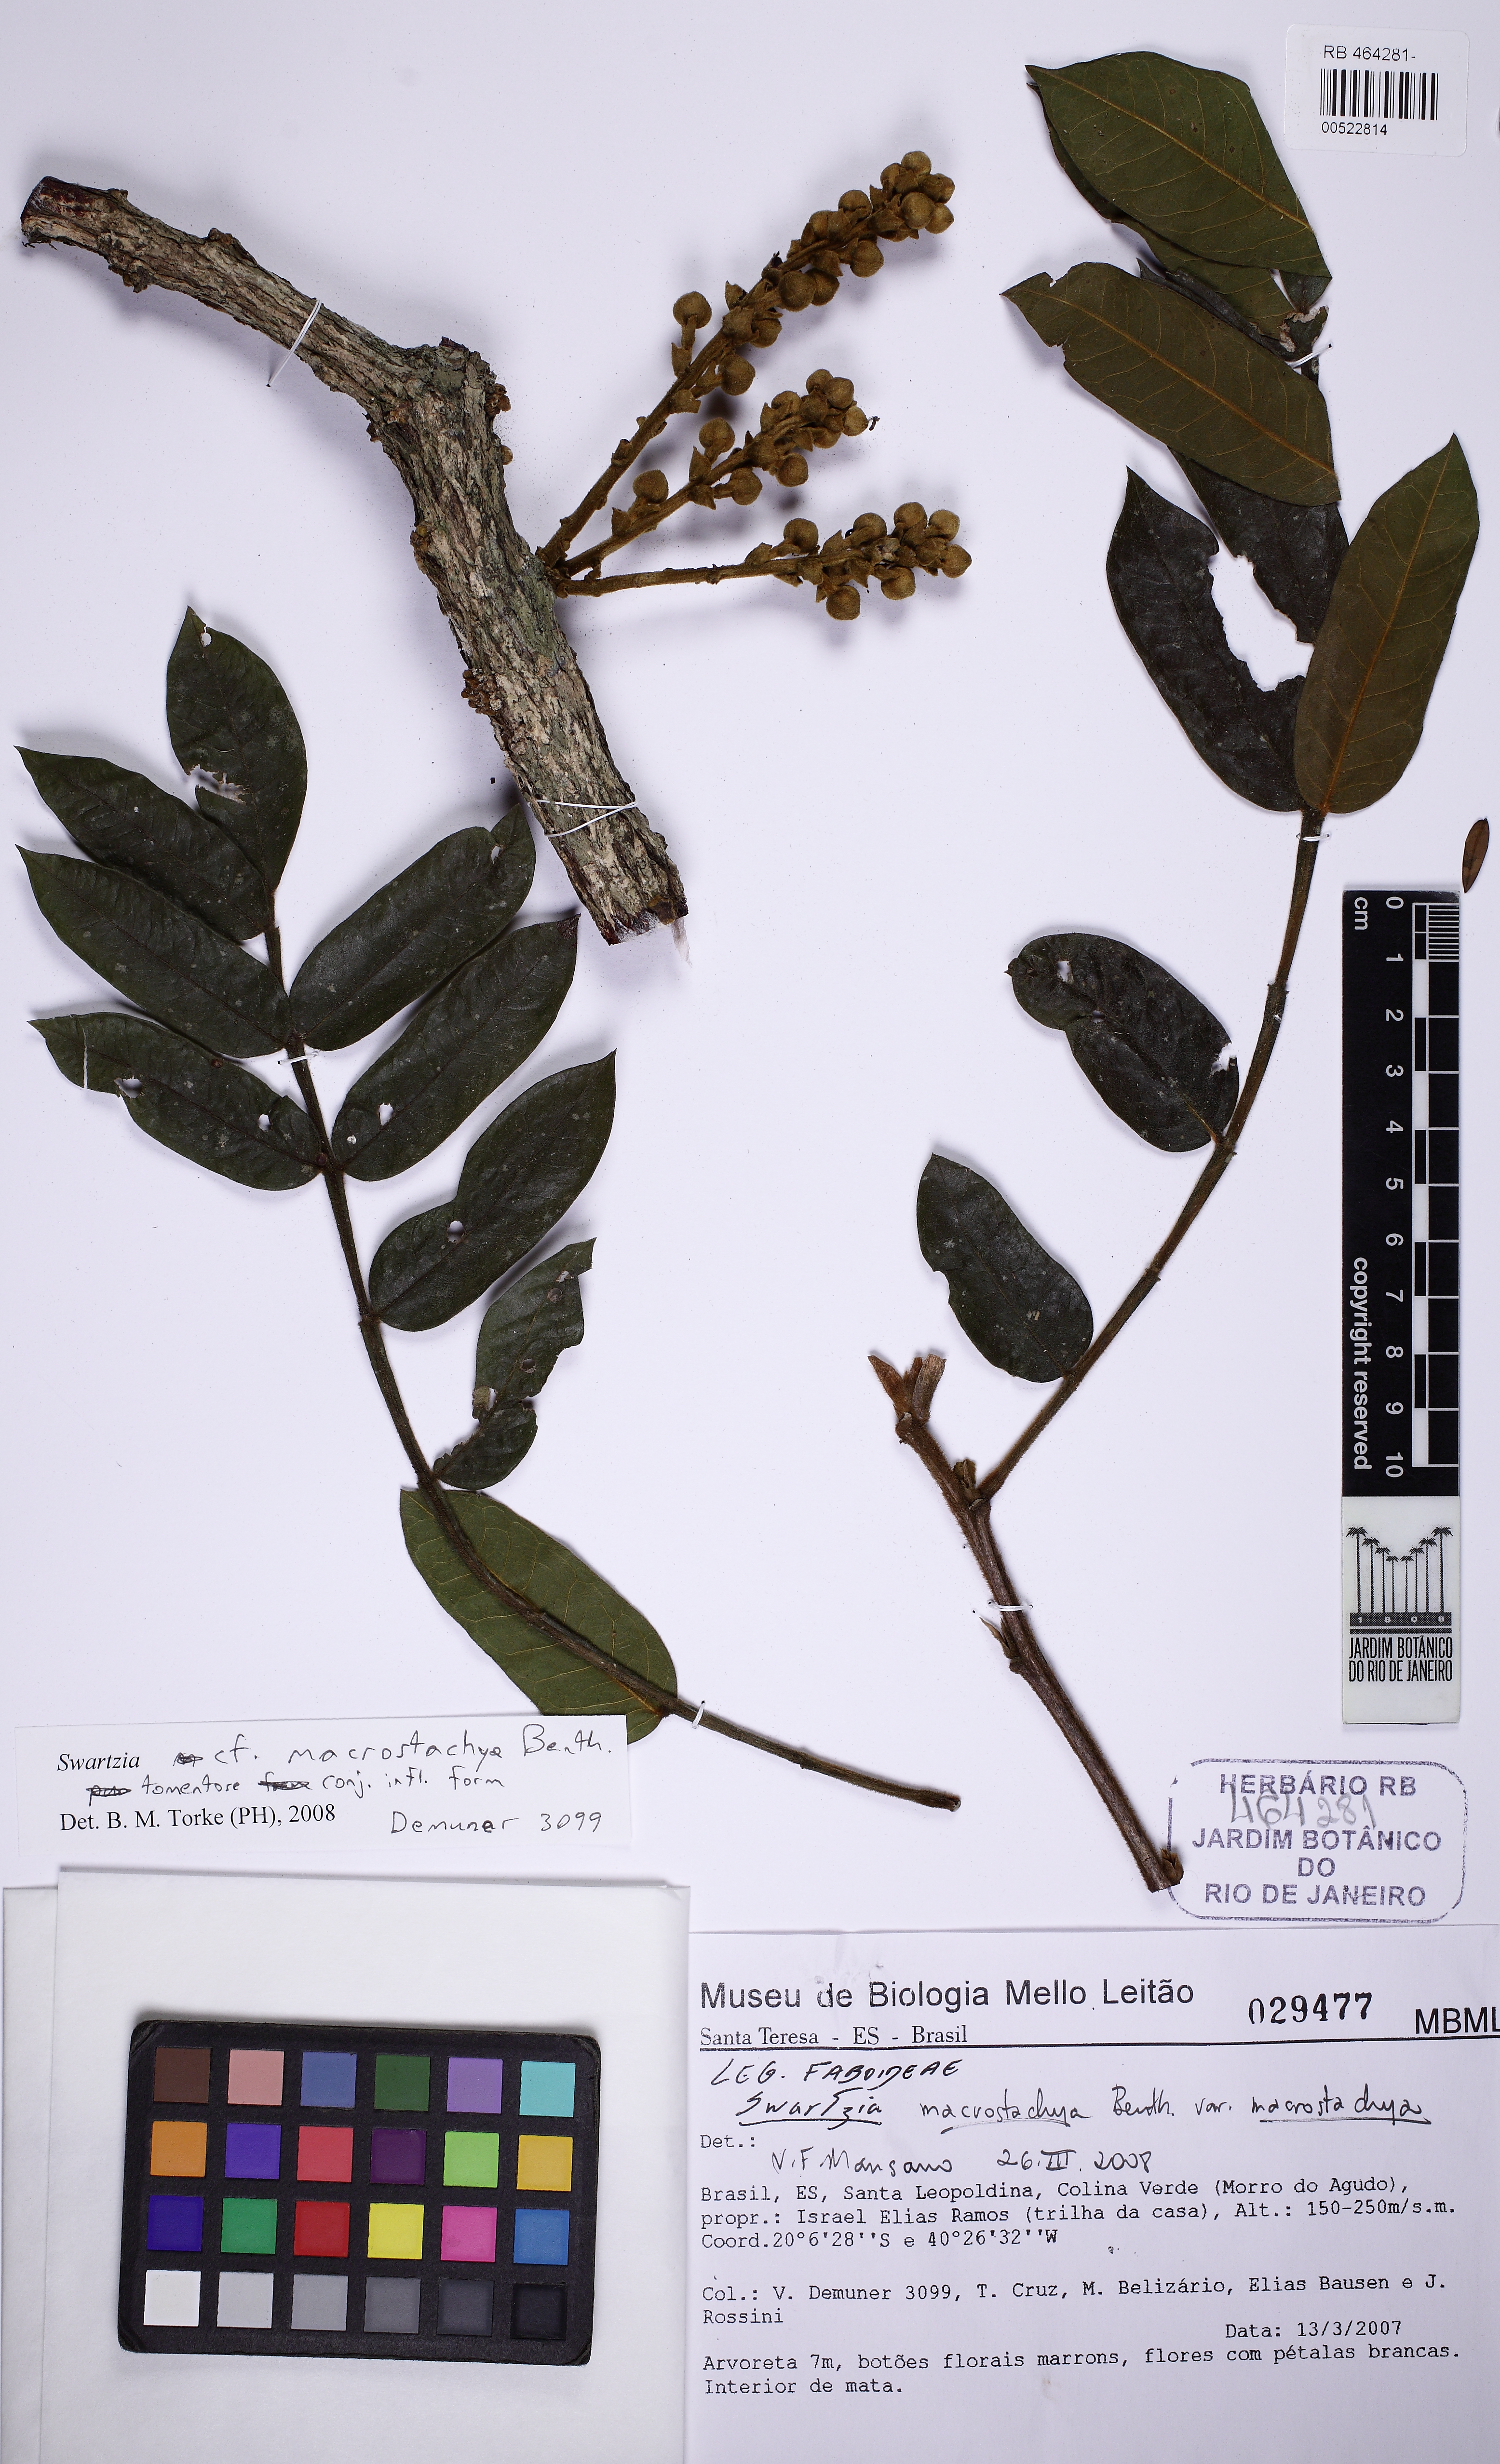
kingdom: Plantae
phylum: Tracheophyta
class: Magnoliopsida
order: Fabales
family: Fabaceae
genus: Swartzia
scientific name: Swartzia macrostachya
